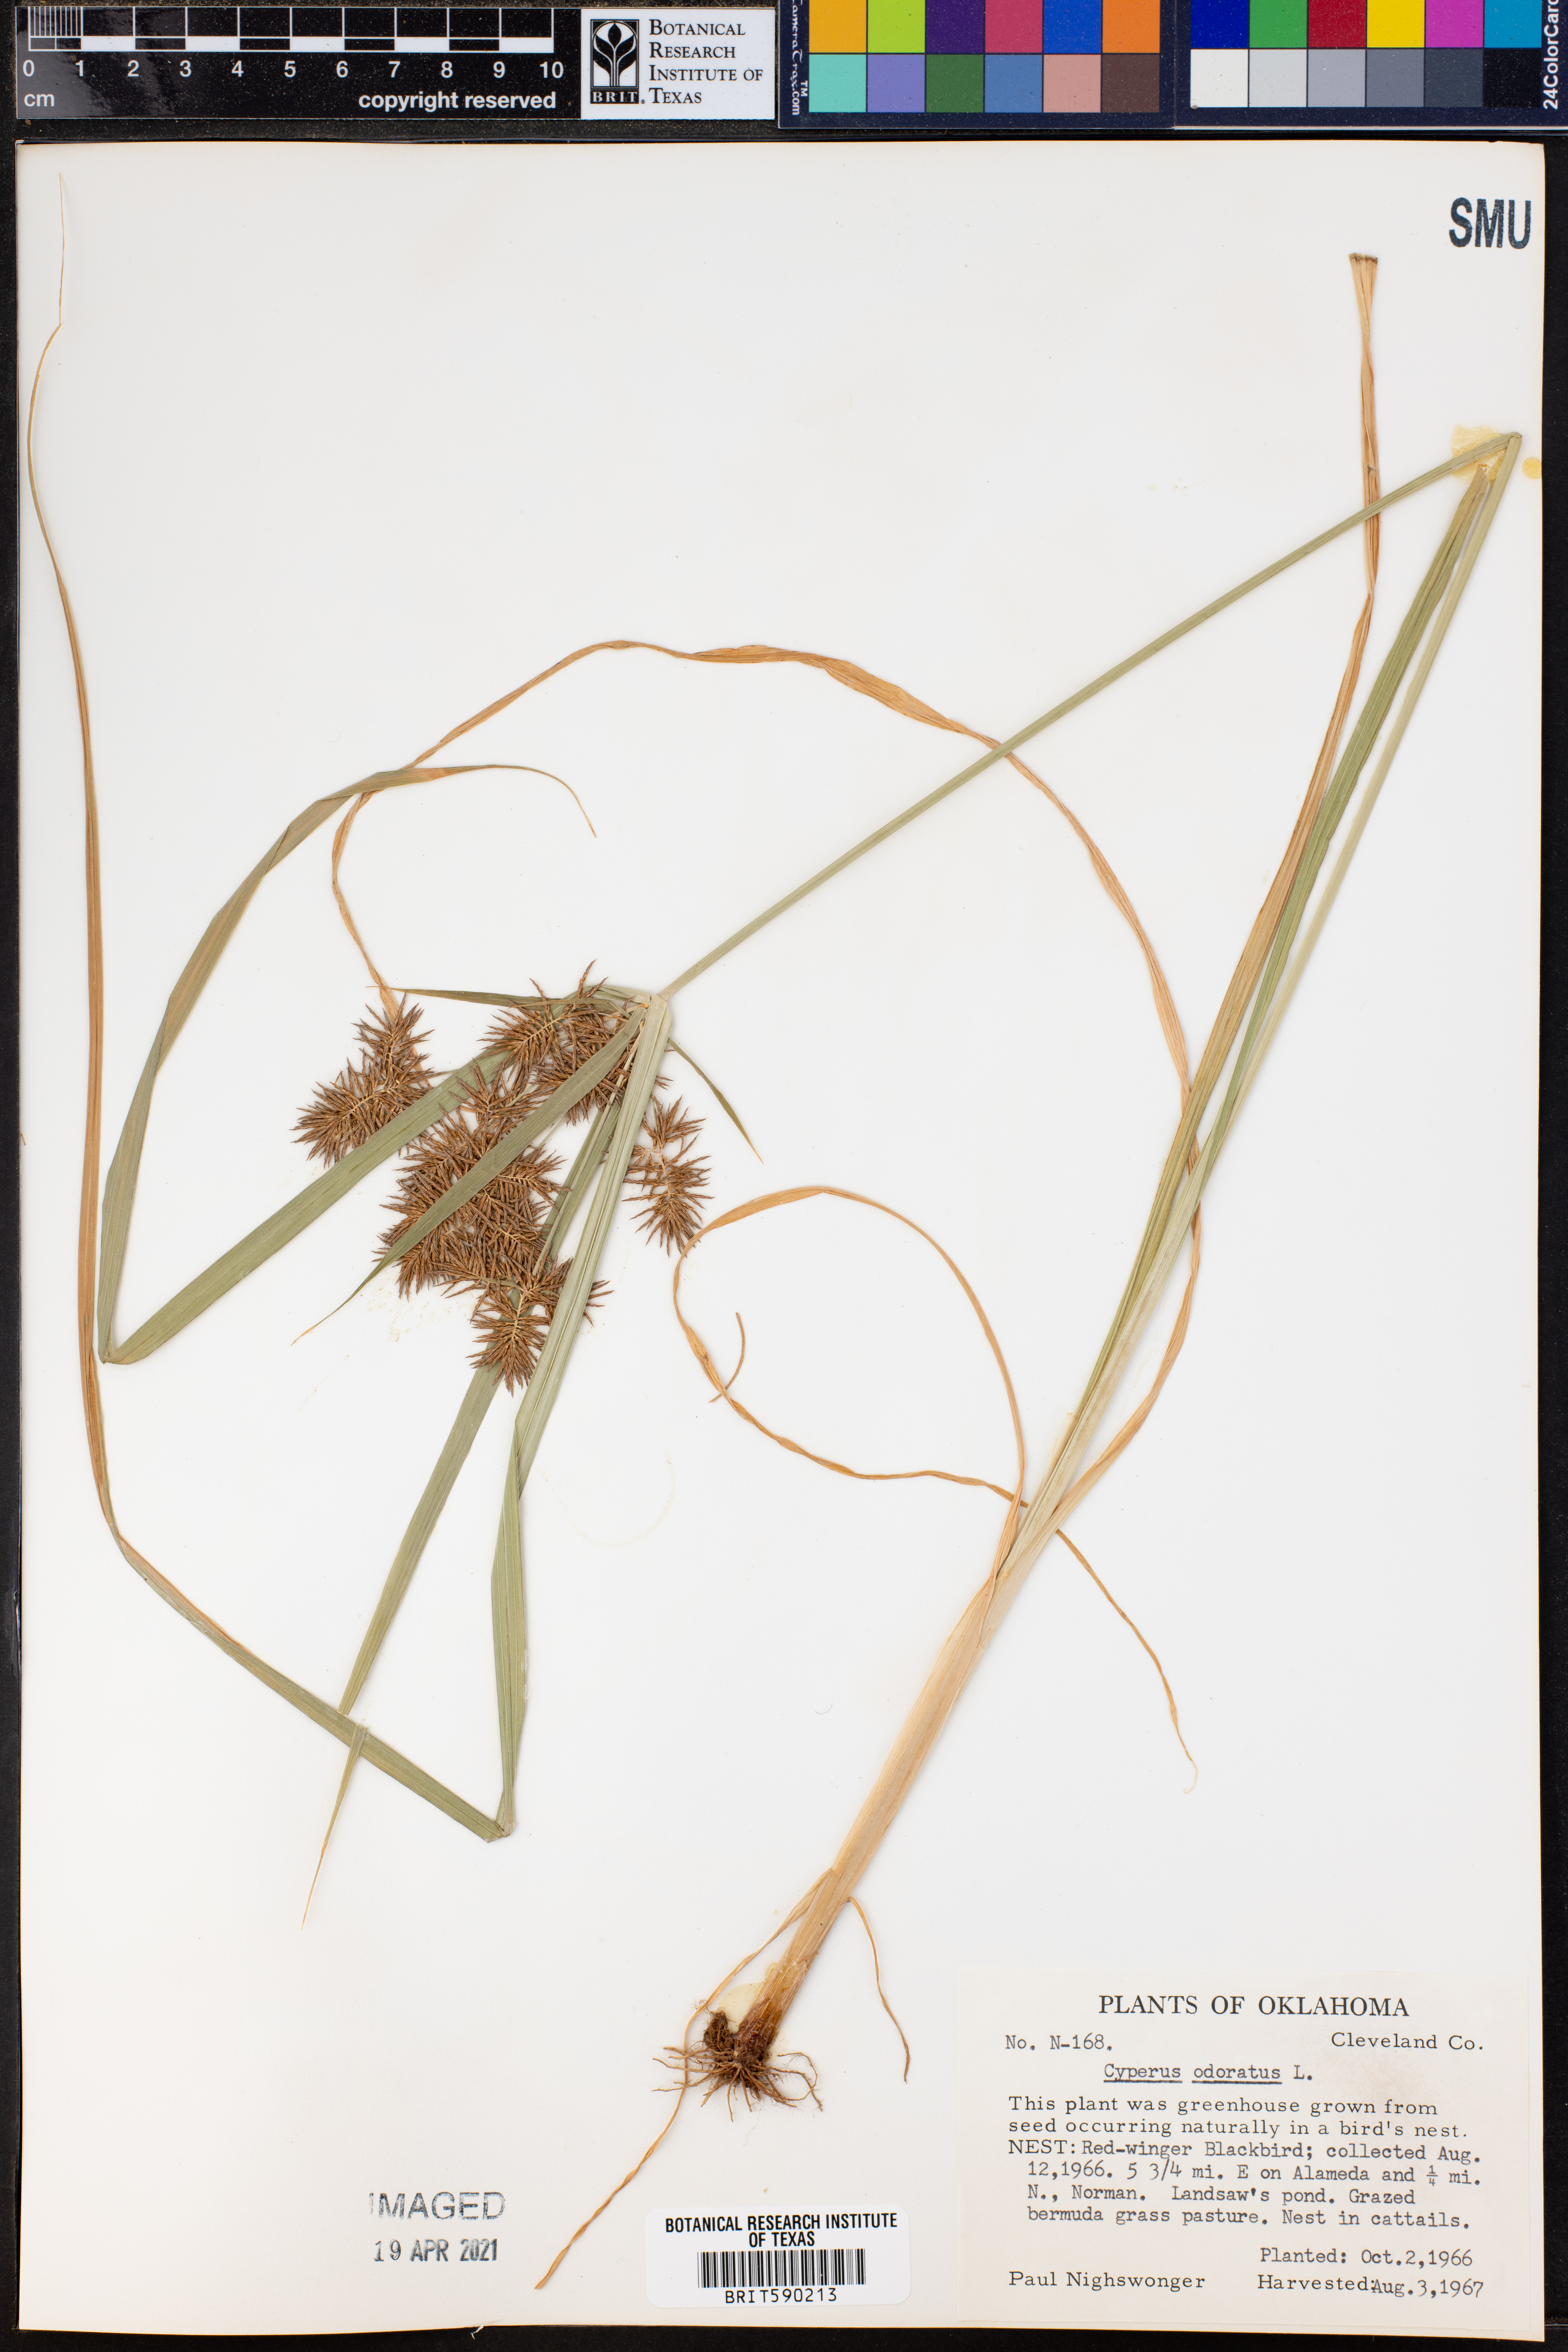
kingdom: Plantae
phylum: Tracheophyta
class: Liliopsida
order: Poales
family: Cyperaceae
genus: Cyperus
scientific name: Cyperus odoratus
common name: Fragrant flatsedge
